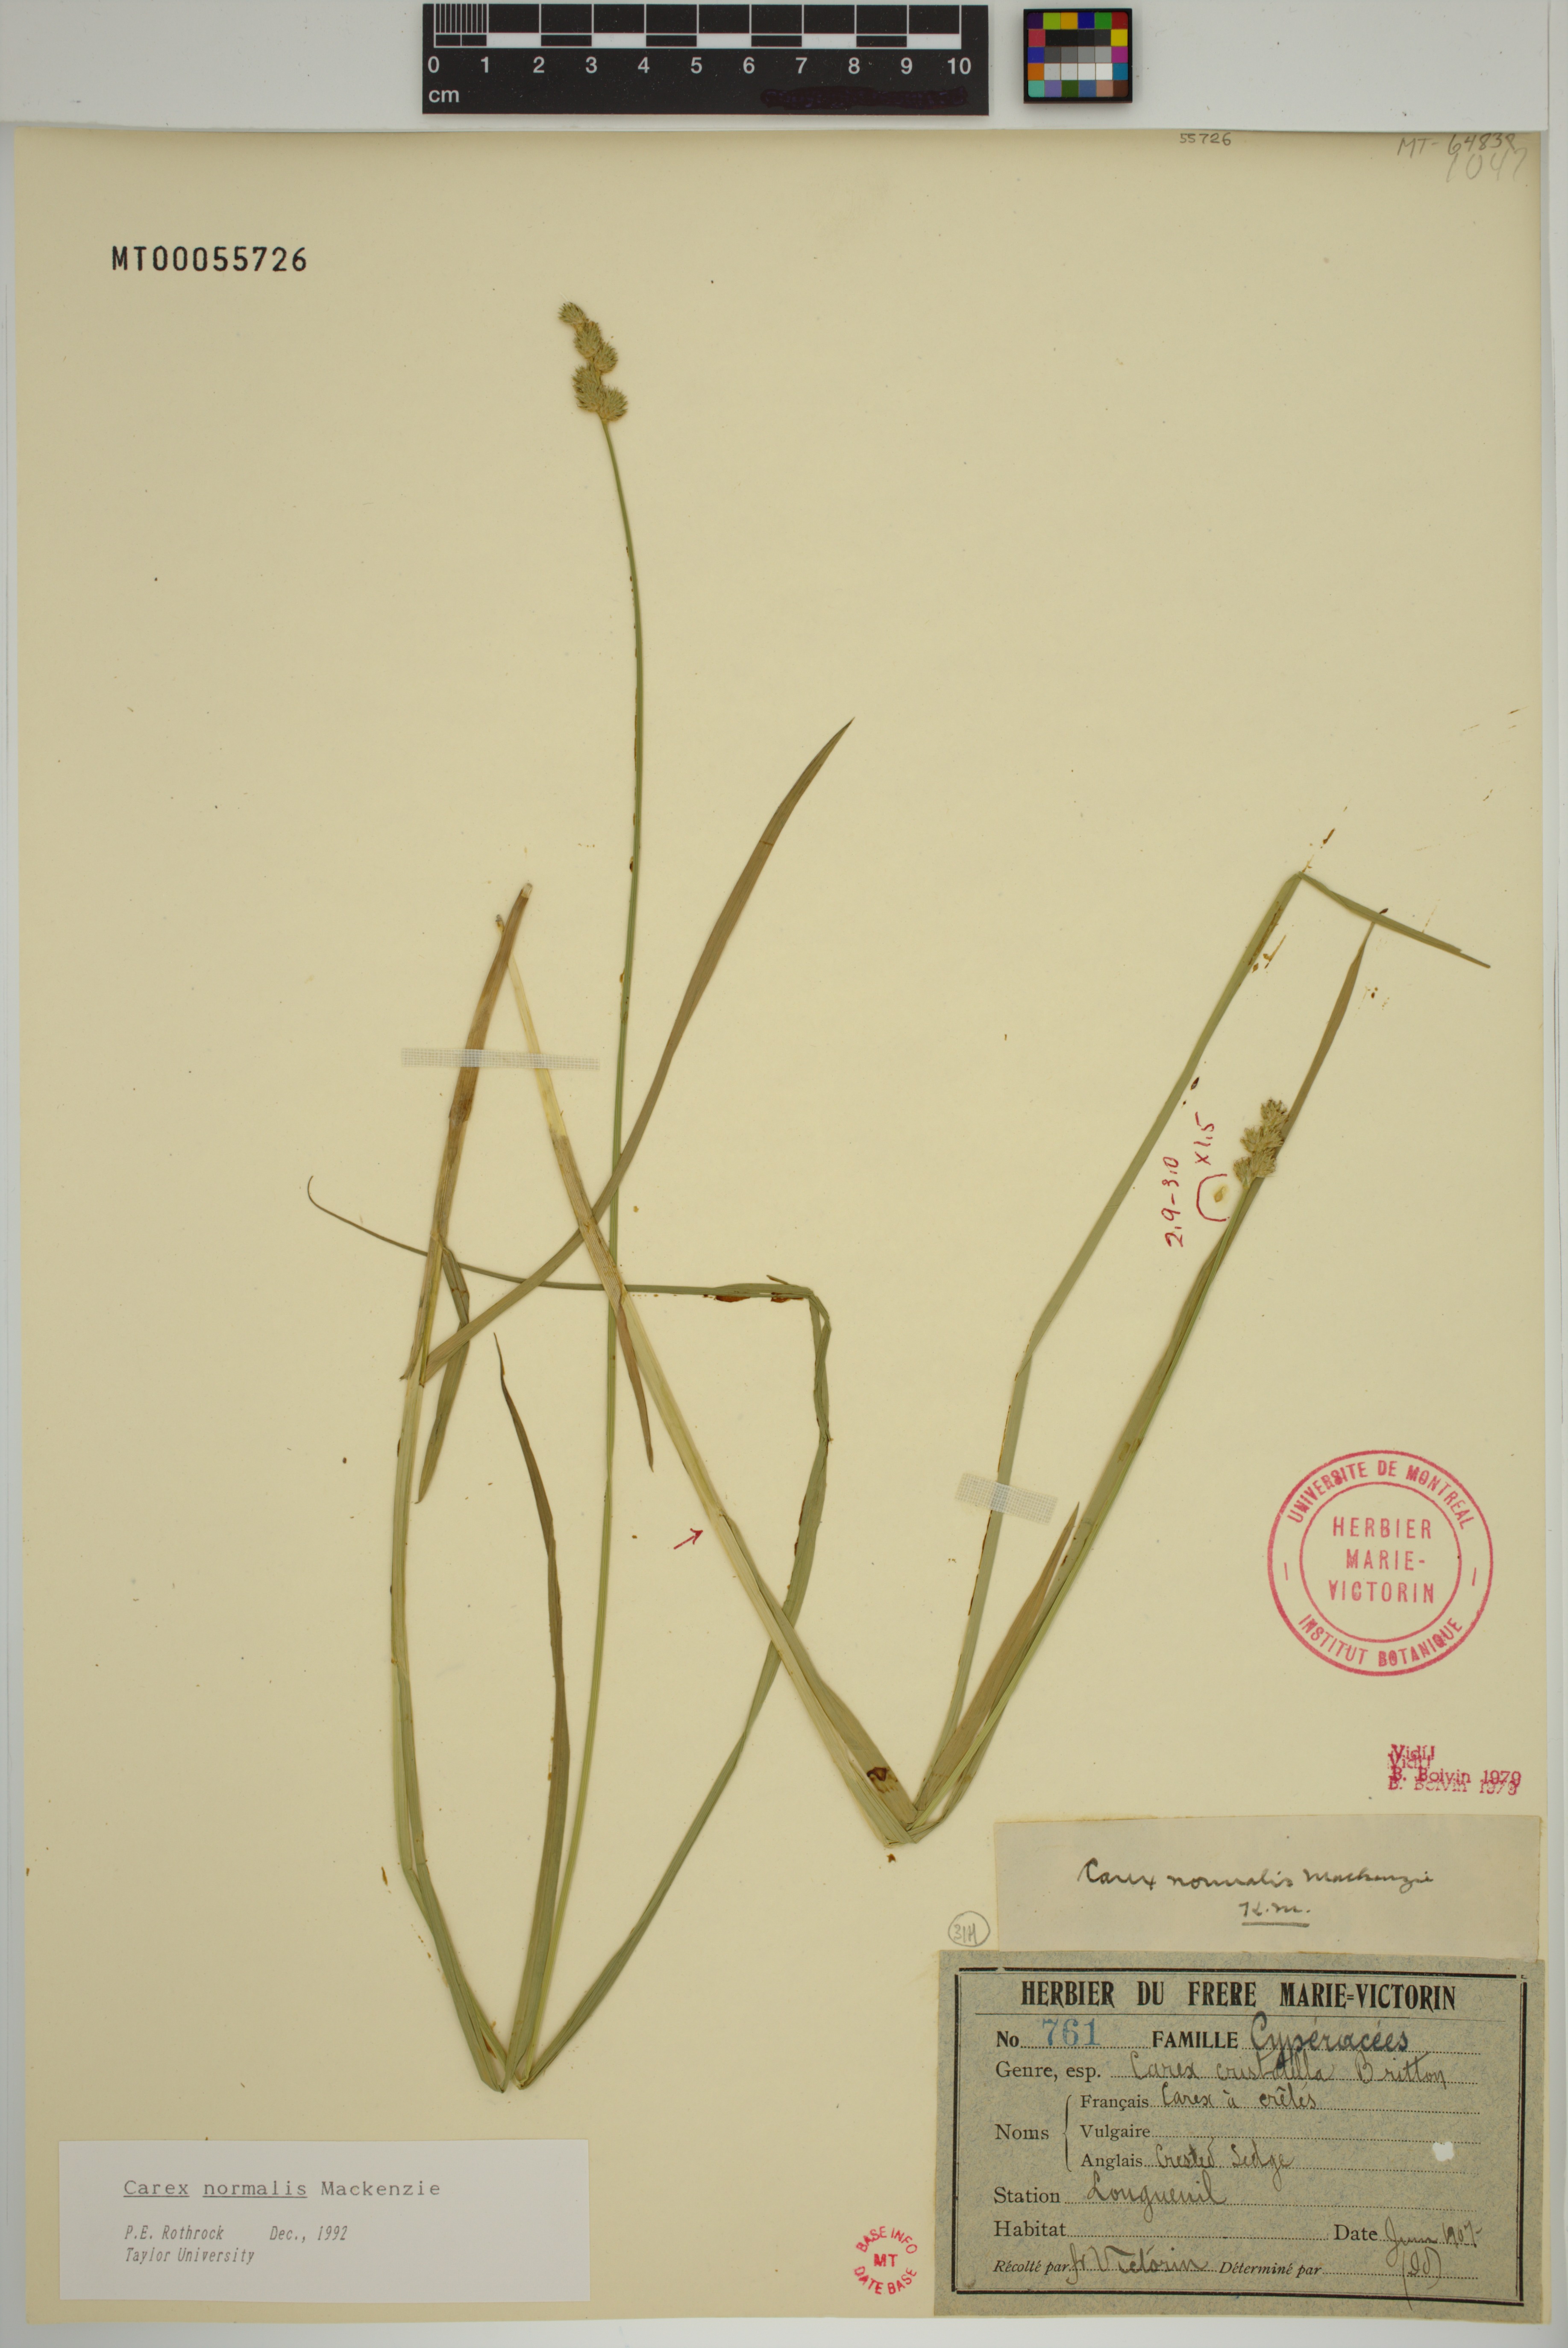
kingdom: Plantae
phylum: Tracheophyta
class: Liliopsida
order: Poales
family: Cyperaceae
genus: Carex
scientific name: Carex normalis
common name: Greater straw sedge
